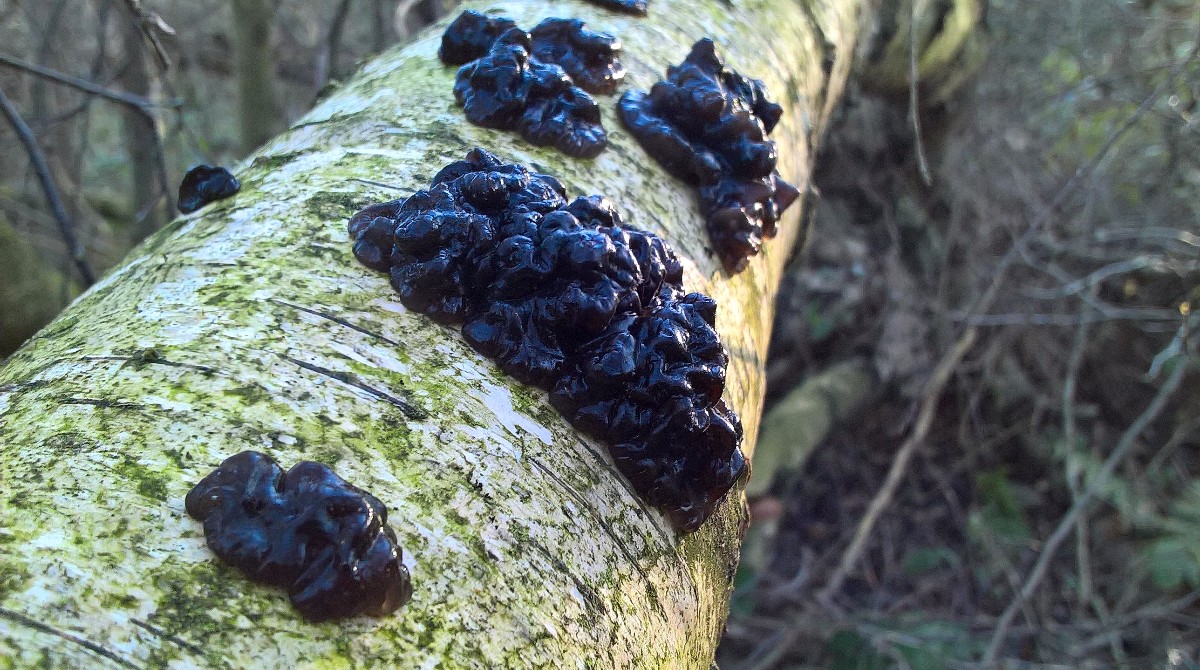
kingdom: Fungi
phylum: Basidiomycota
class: Agaricomycetes
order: Auriculariales
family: Auriculariaceae
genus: Exidia
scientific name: Exidia nigricans
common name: almindelig bævretop
